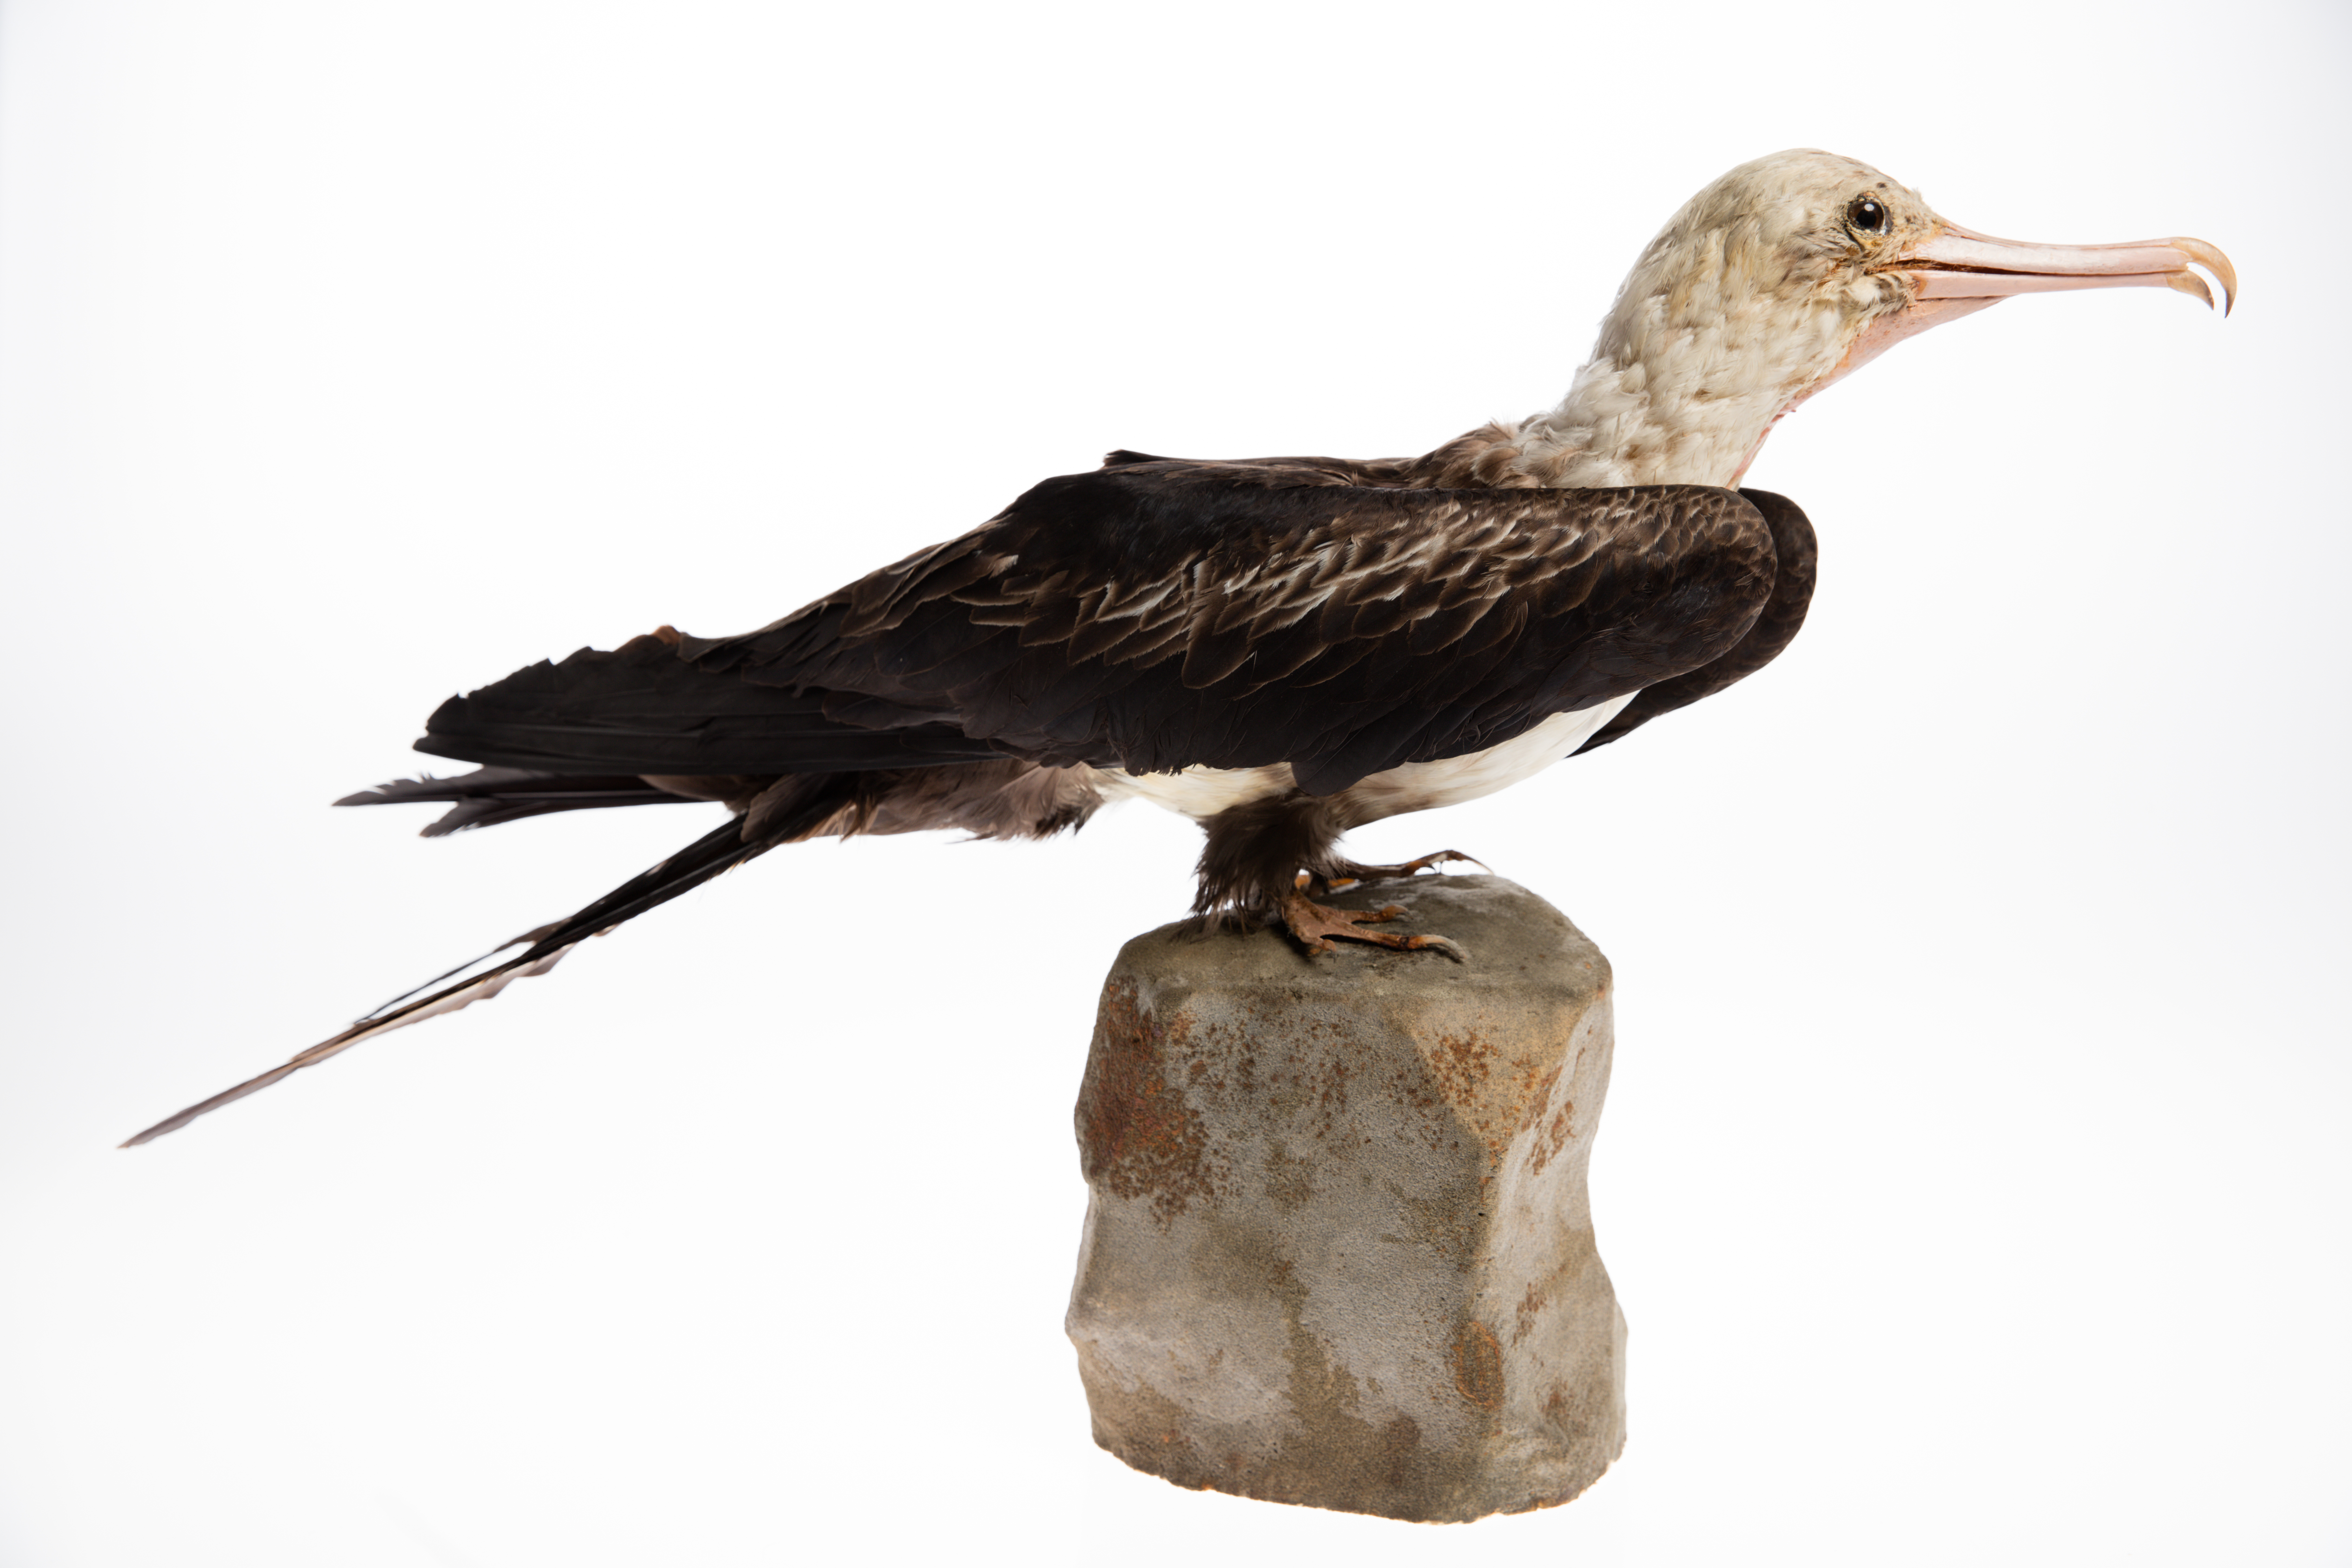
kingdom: Animalia
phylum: Chordata
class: Aves
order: Suliformes
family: Fregatidae
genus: Fregata
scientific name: Fregata ariel
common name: Lesser frigatebird
